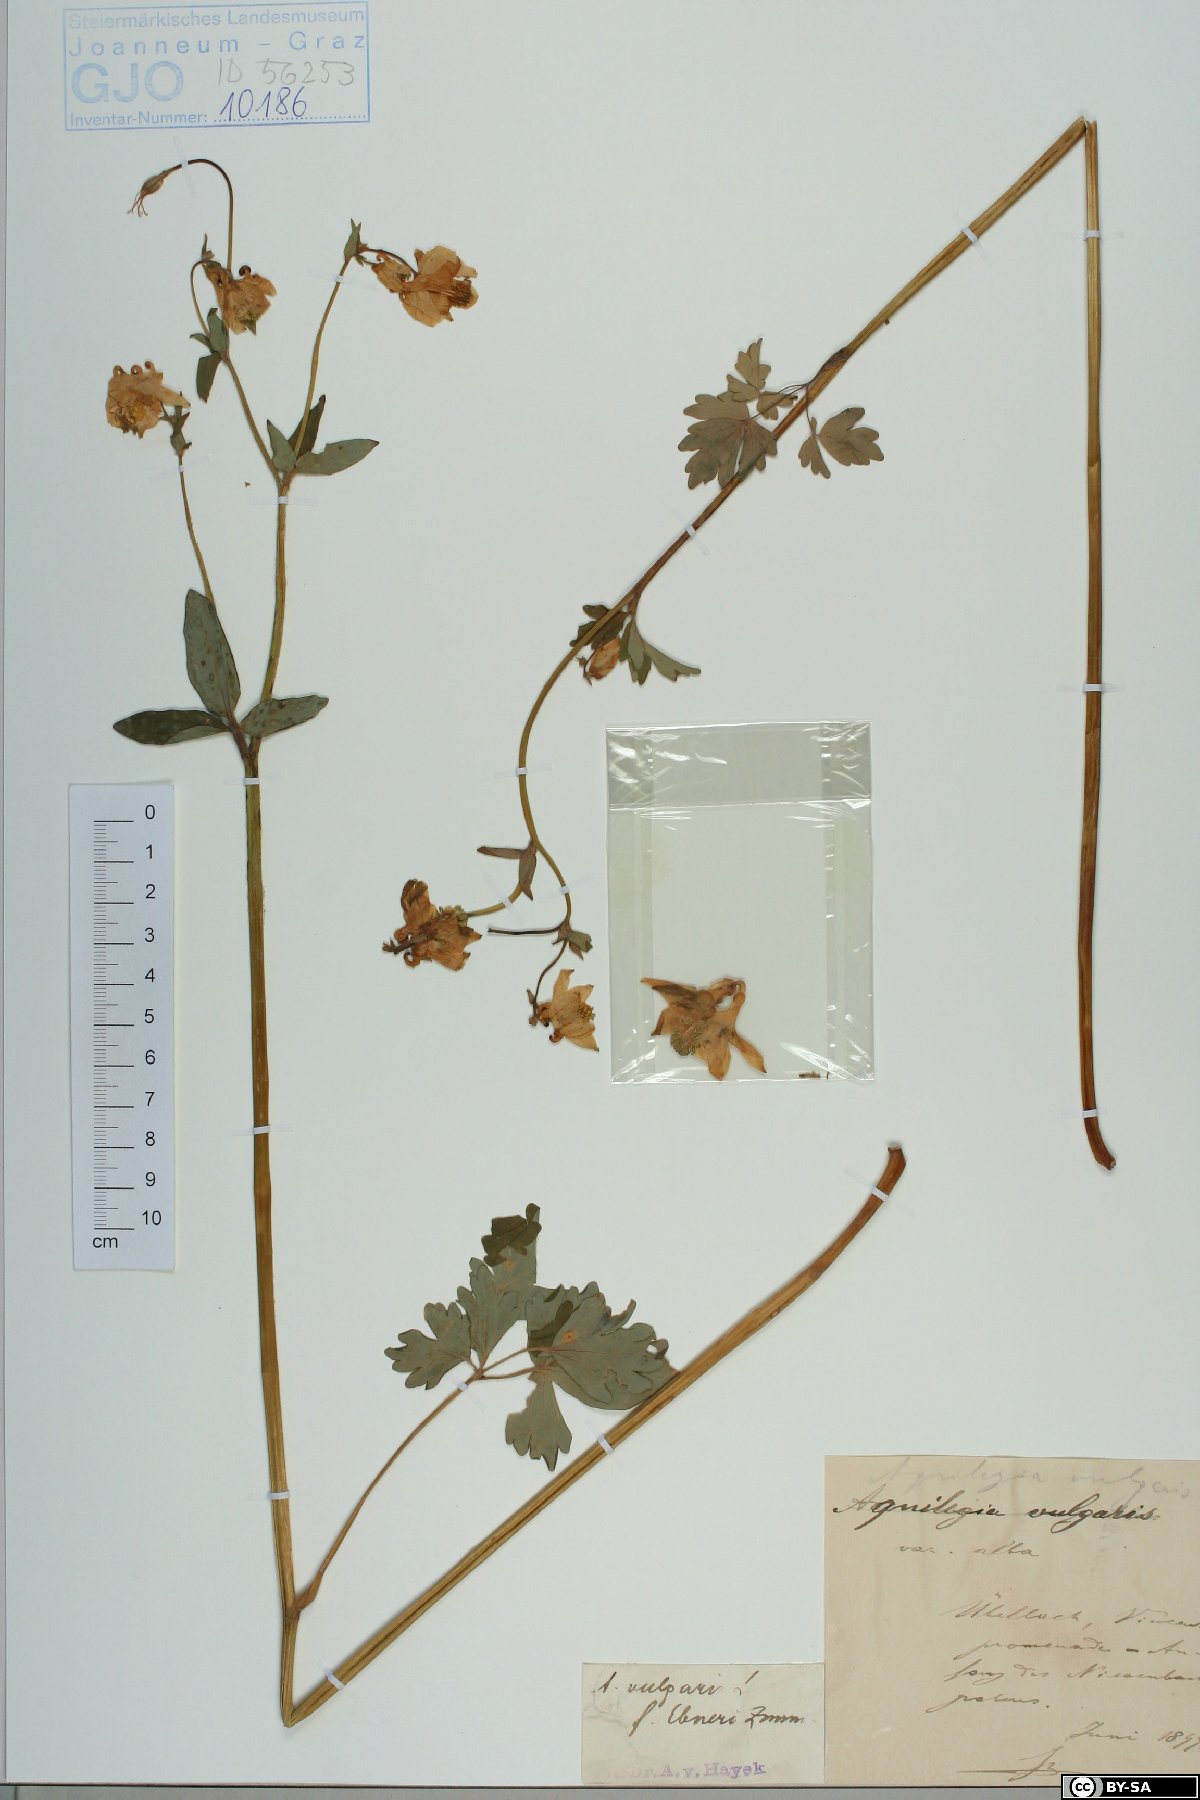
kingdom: Plantae
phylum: Tracheophyta
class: Magnoliopsida
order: Ranunculales
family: Ranunculaceae
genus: Aquilegia
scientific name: Aquilegia vulgaris
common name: Columbine
